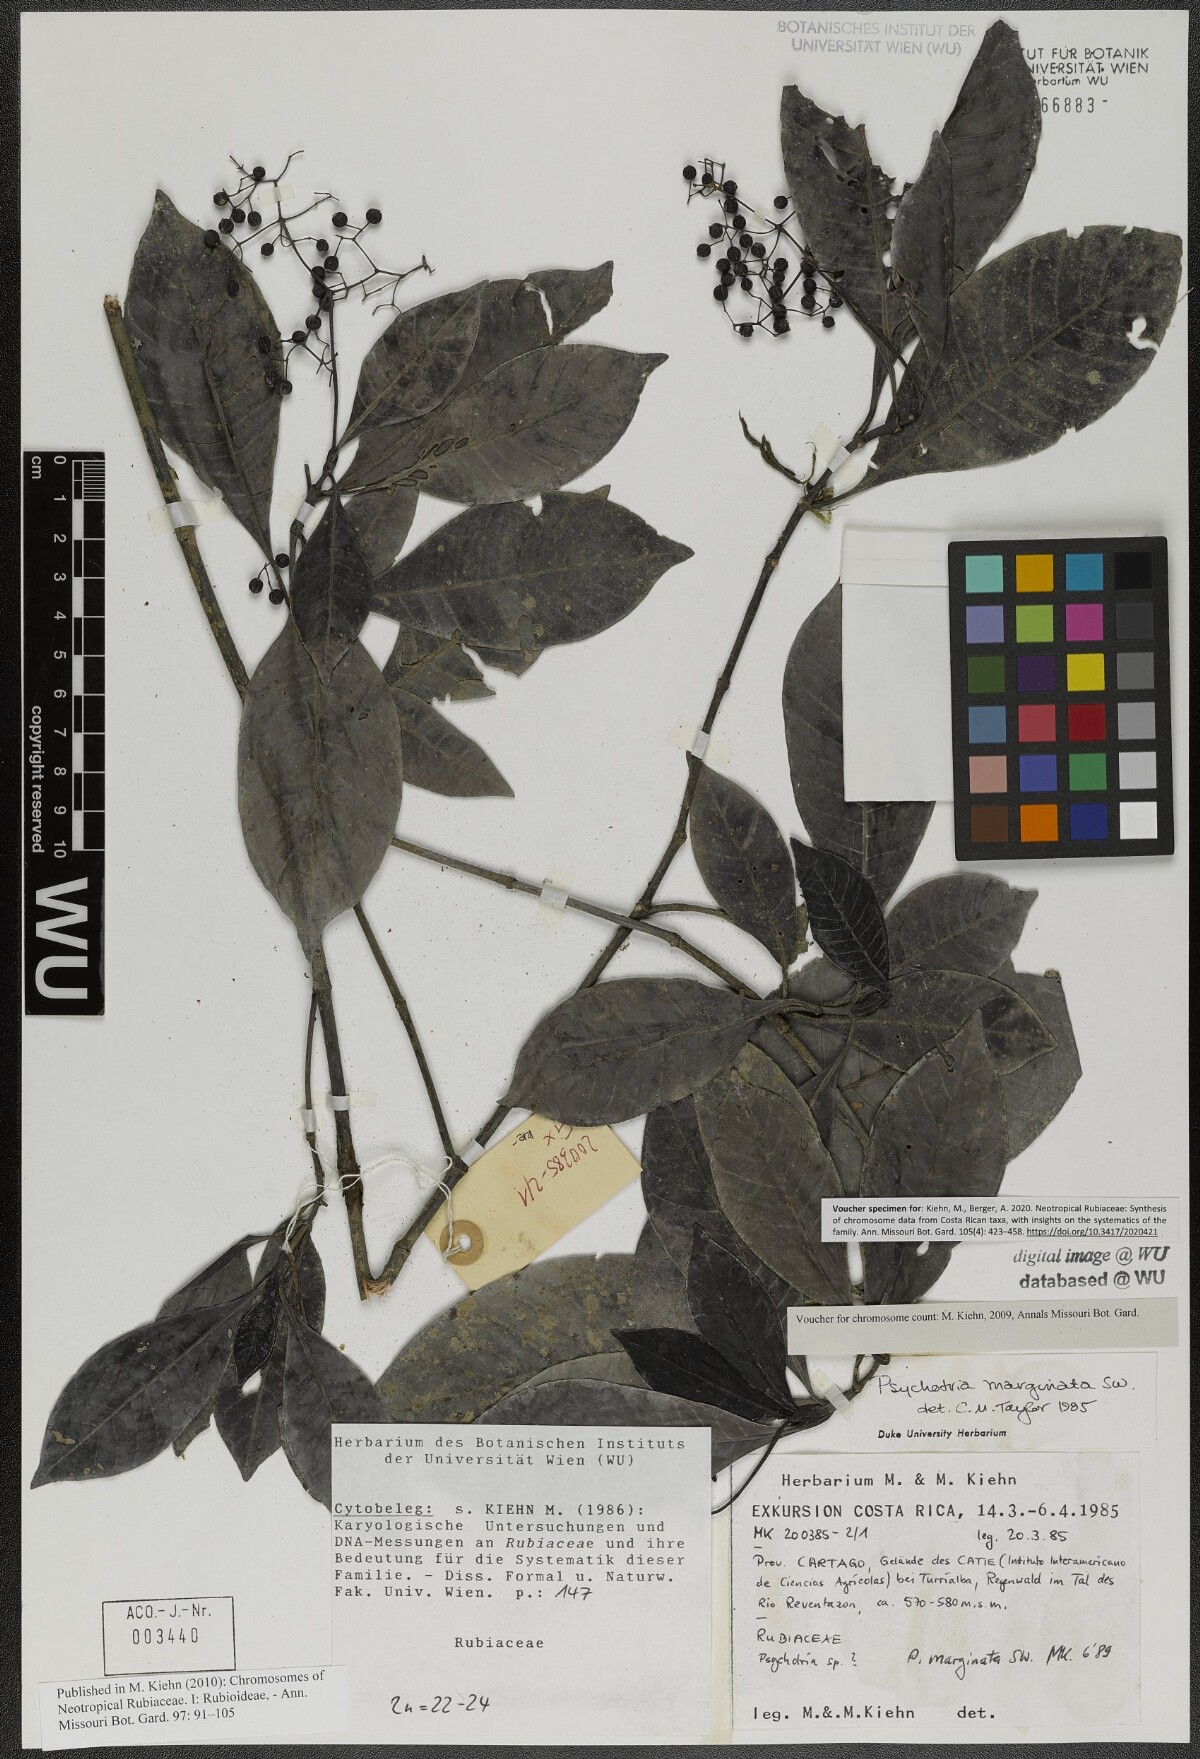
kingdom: Plantae
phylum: Tracheophyta
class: Magnoliopsida
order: Gentianales
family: Rubiaceae
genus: Psychotria
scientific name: Psychotria marginata
